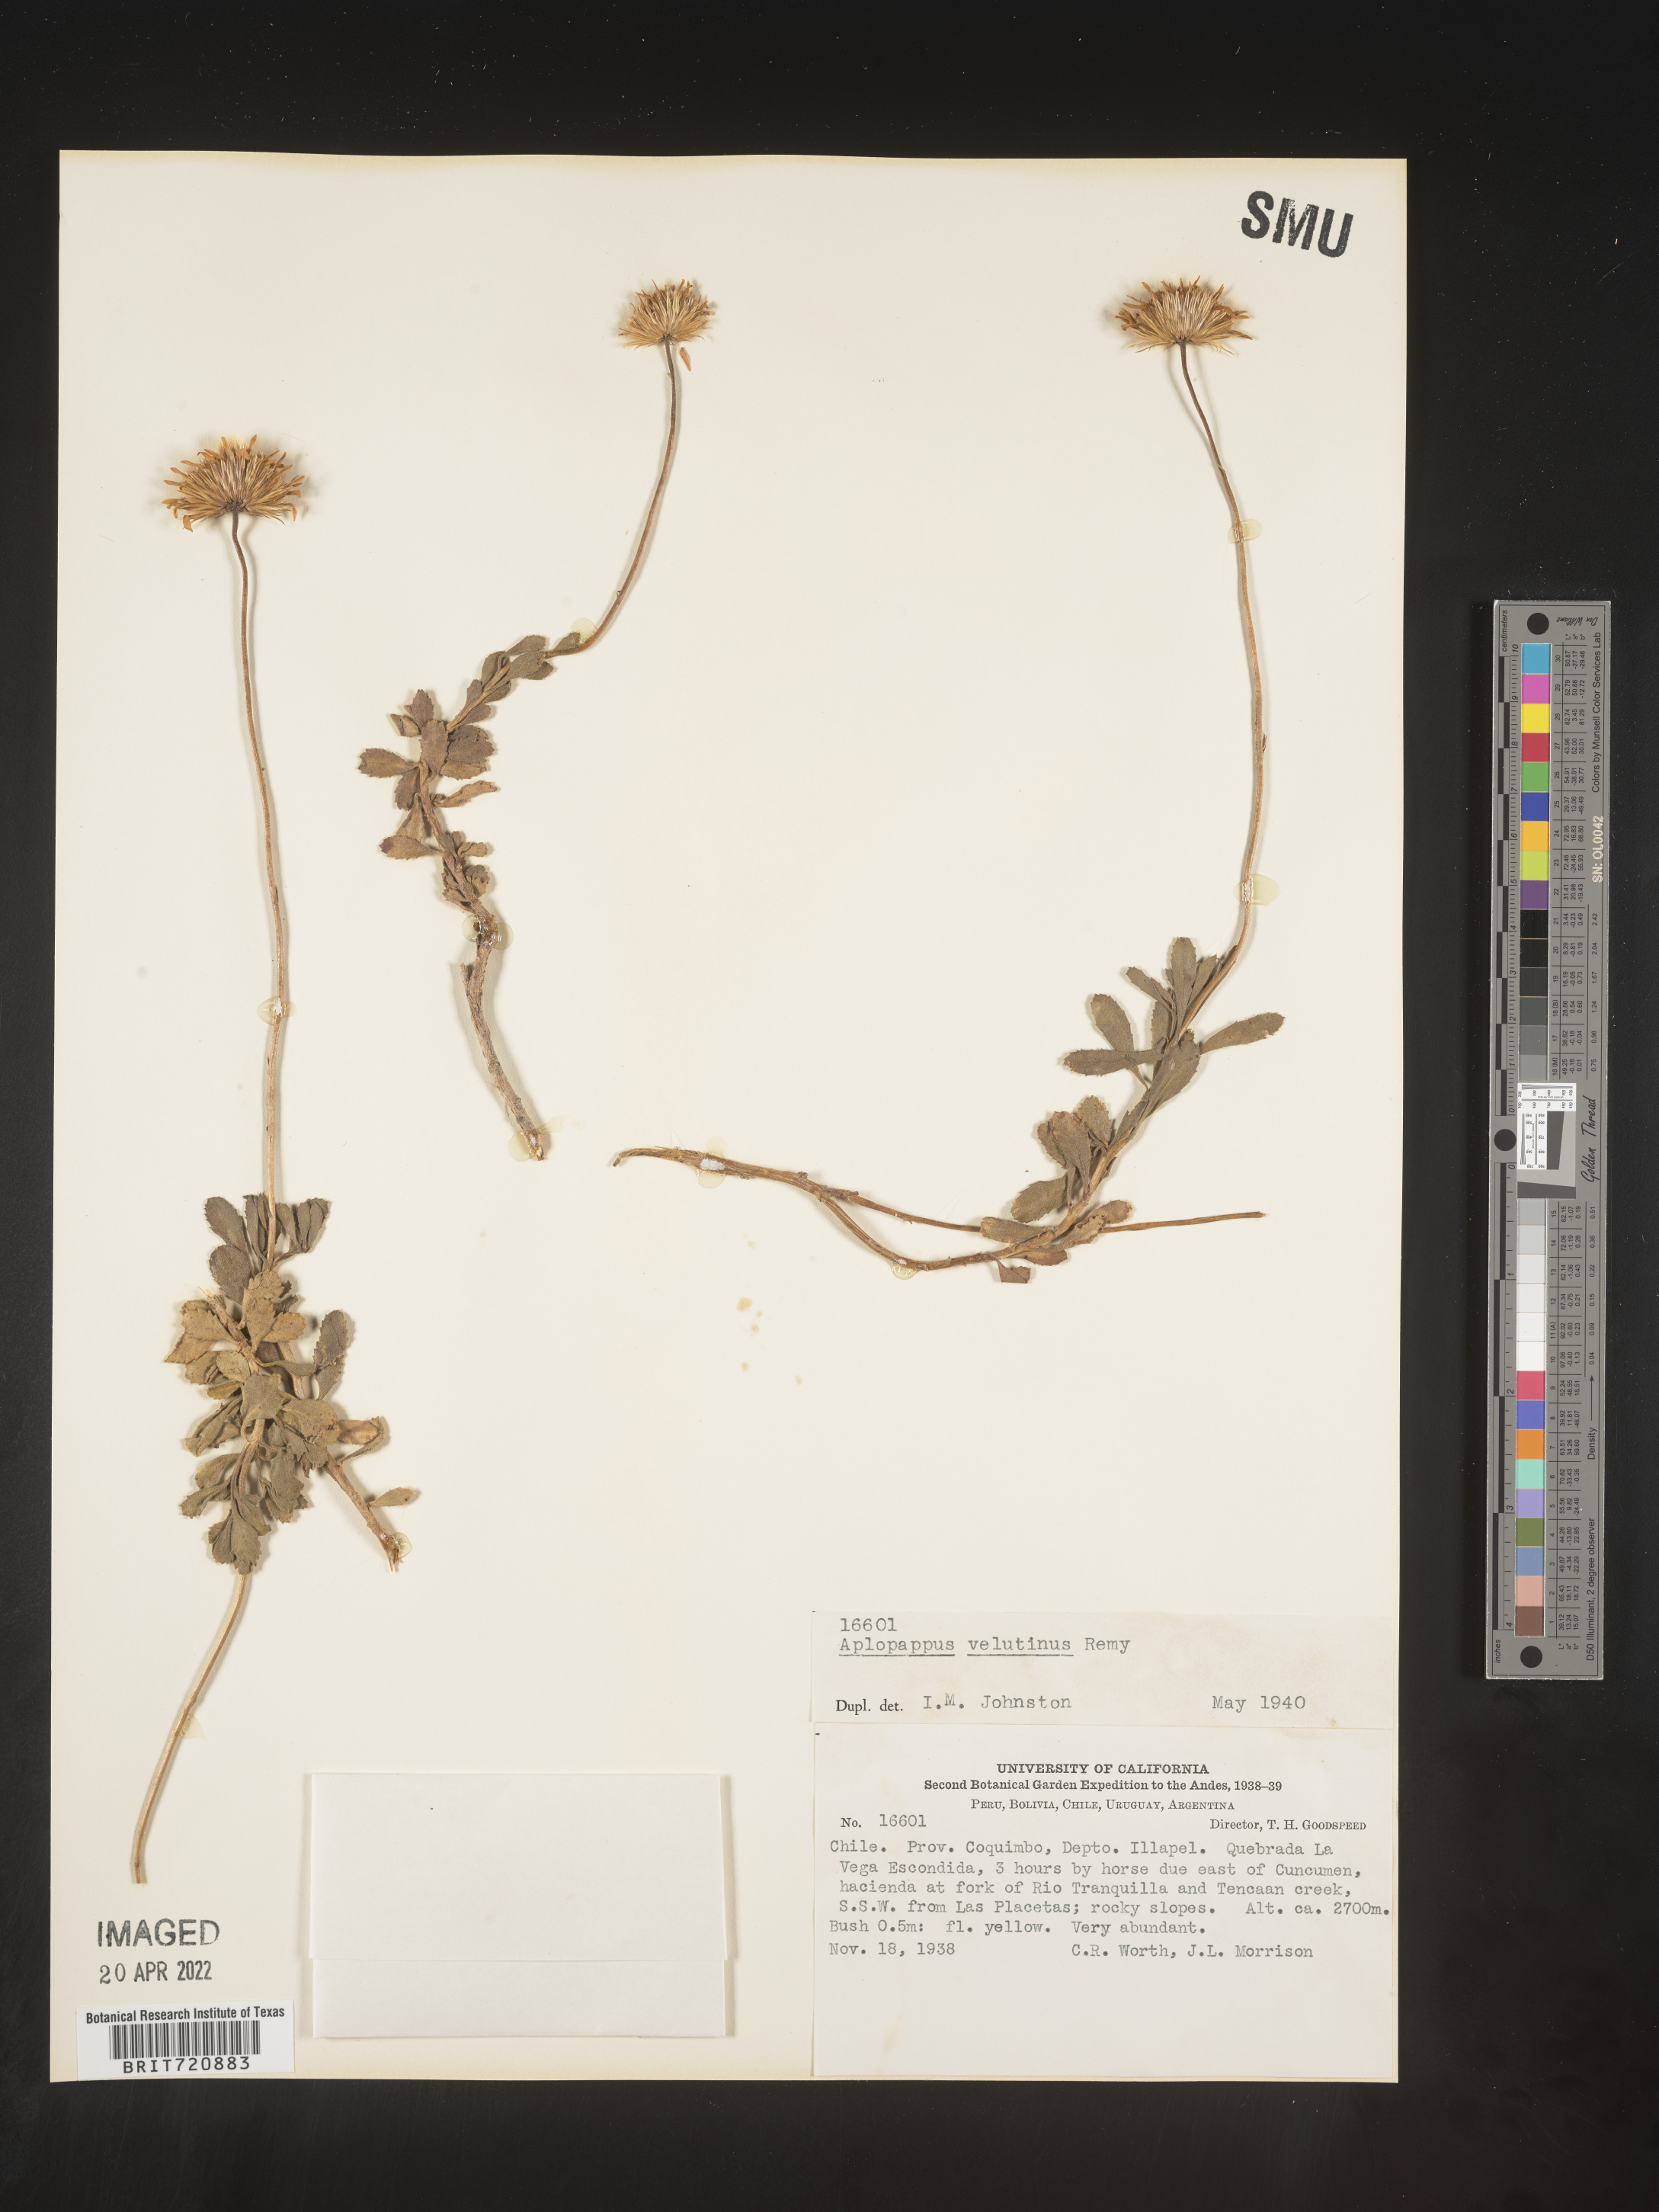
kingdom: Plantae
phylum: Tracheophyta
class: Magnoliopsida
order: Asterales
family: Asteraceae
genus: Haplopappus
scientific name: Haplopappus
